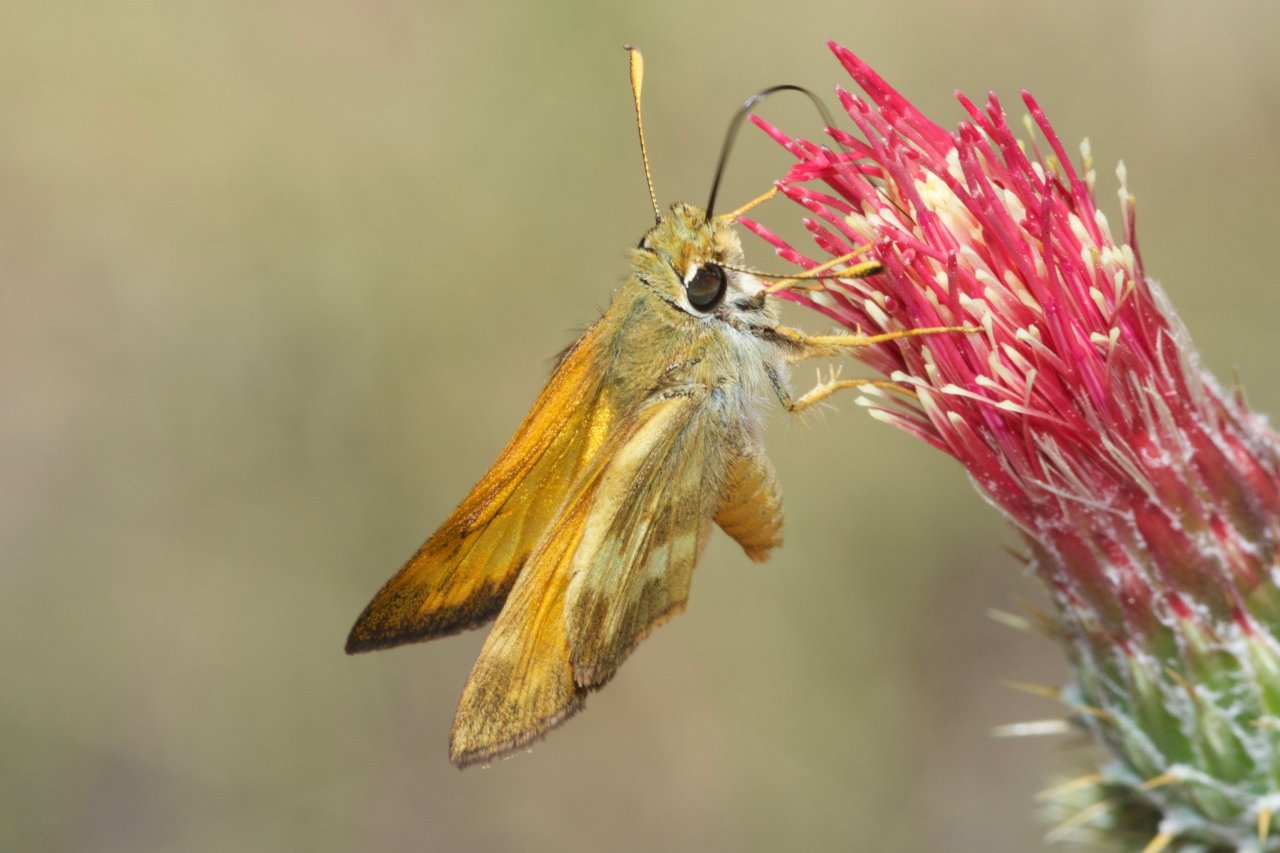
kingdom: Animalia
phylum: Arthropoda
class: Insecta
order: Lepidoptera
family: Hesperiidae
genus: Lon
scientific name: Lon taxiles
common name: Taxiles Skipper
